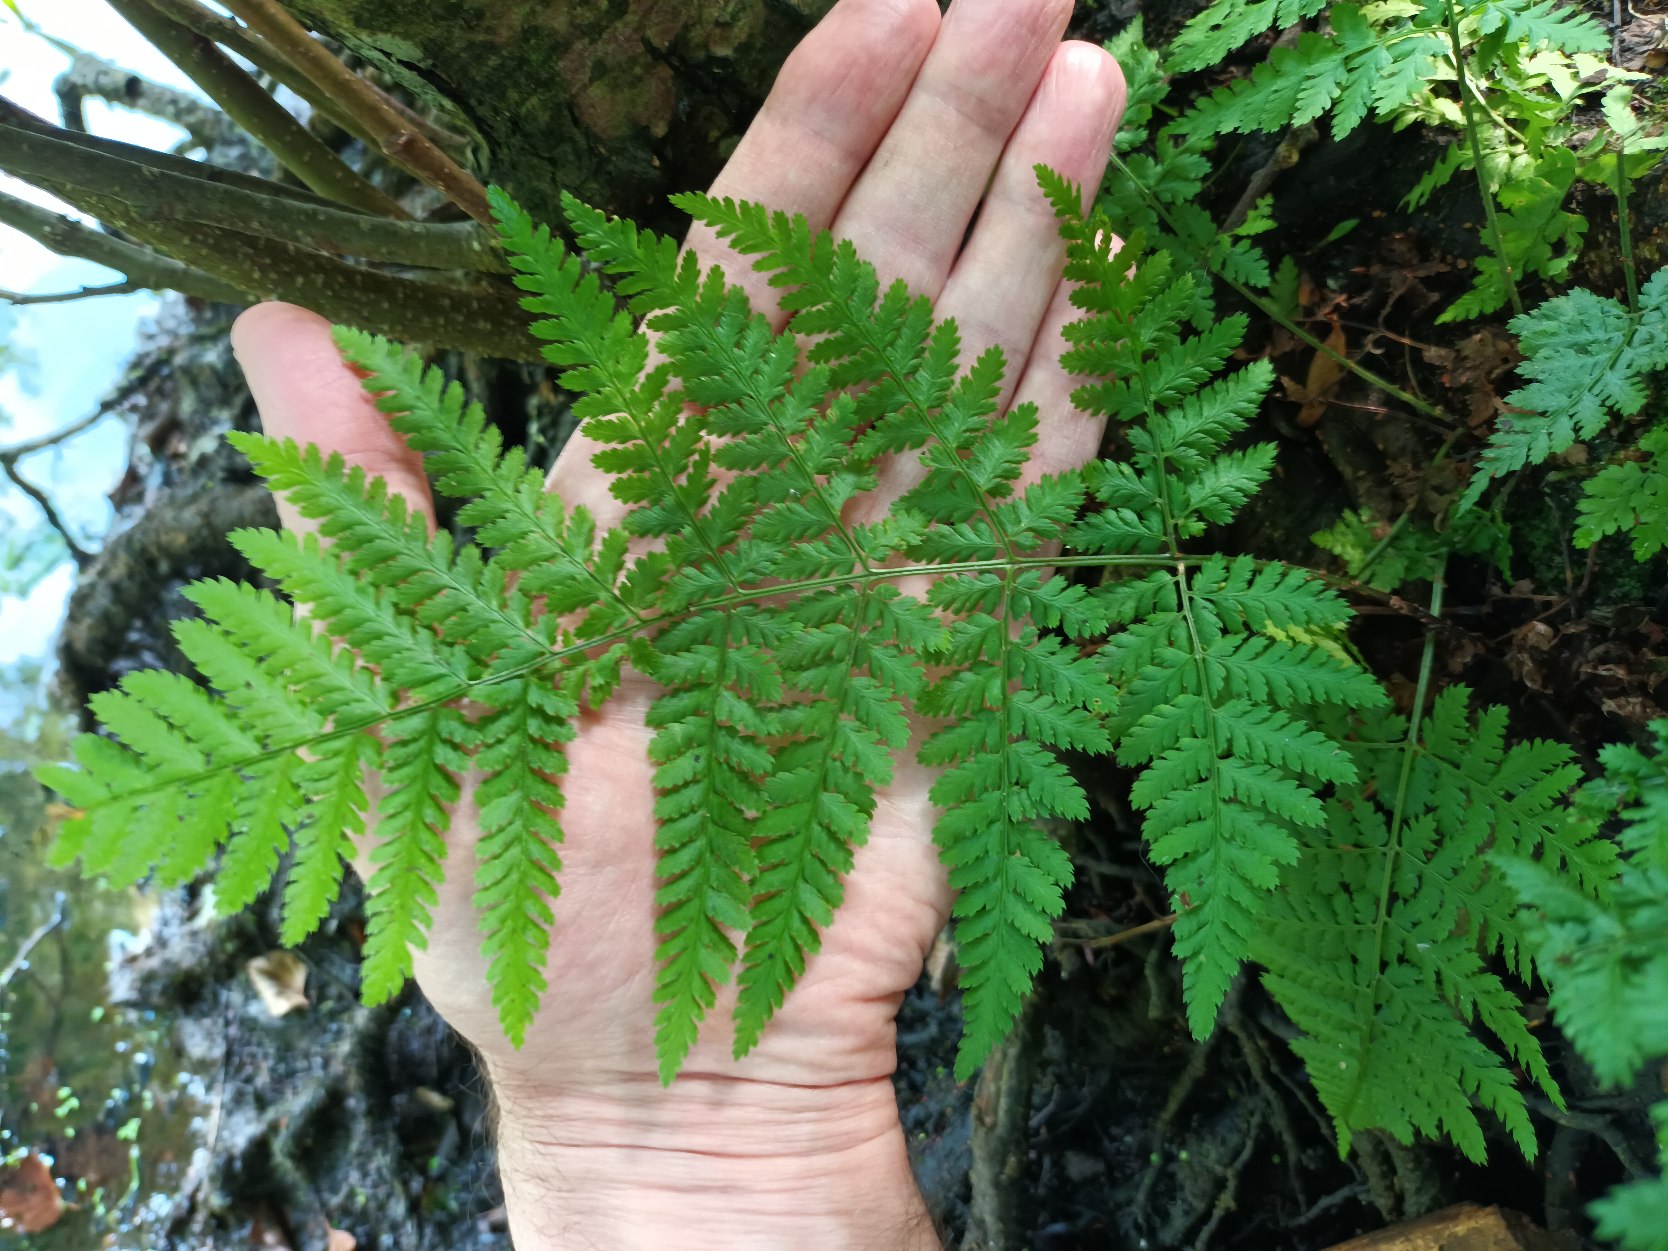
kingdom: Plantae
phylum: Tracheophyta
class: Polypodiopsida
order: Polypodiales
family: Dryopteridaceae
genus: Dryopteris
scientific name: Dryopteris dilatata
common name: Bredbladet mangeløv
